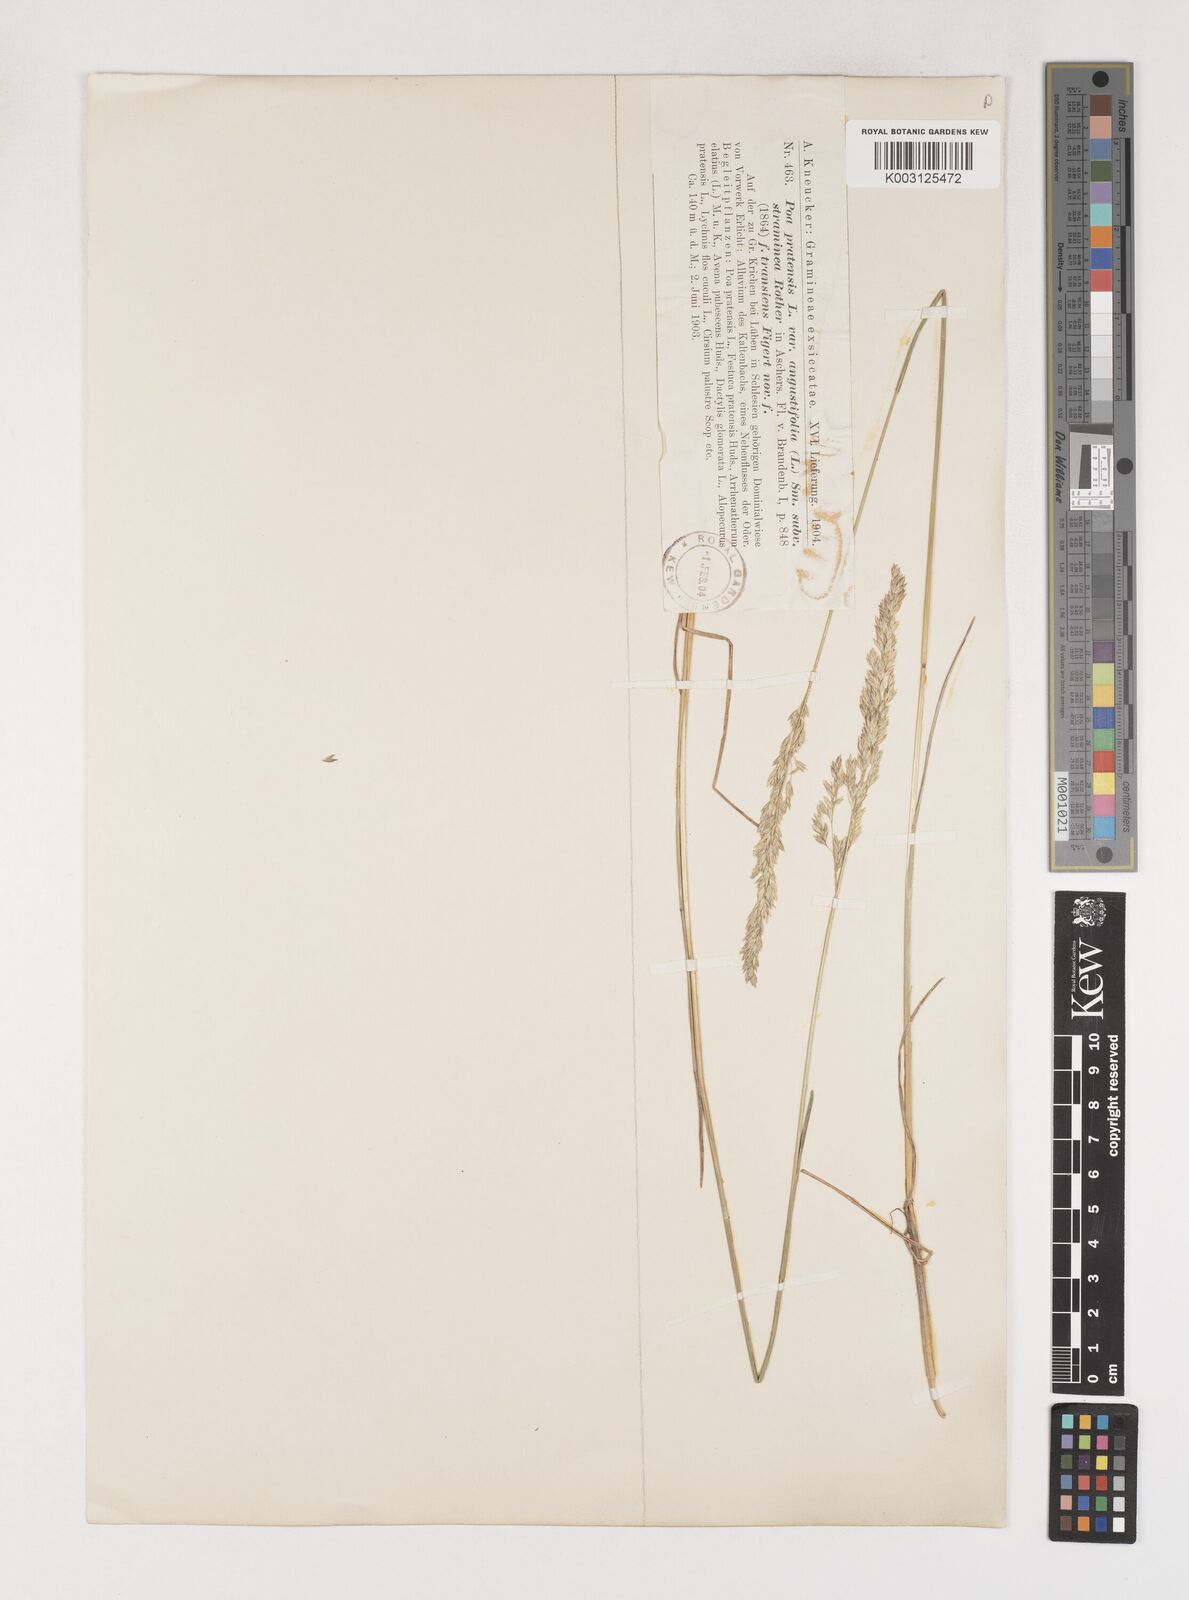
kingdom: Plantae
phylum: Tracheophyta
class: Liliopsida
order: Poales
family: Poaceae
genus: Poa
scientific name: Poa angustifolia
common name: Narrow-leaved meadow-grass
